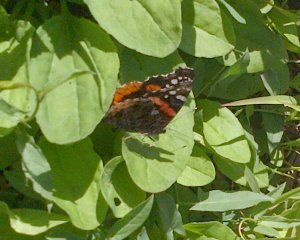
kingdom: Animalia
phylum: Arthropoda
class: Insecta
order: Lepidoptera
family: Nymphalidae
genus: Vanessa
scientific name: Vanessa atalanta
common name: Red Admiral
